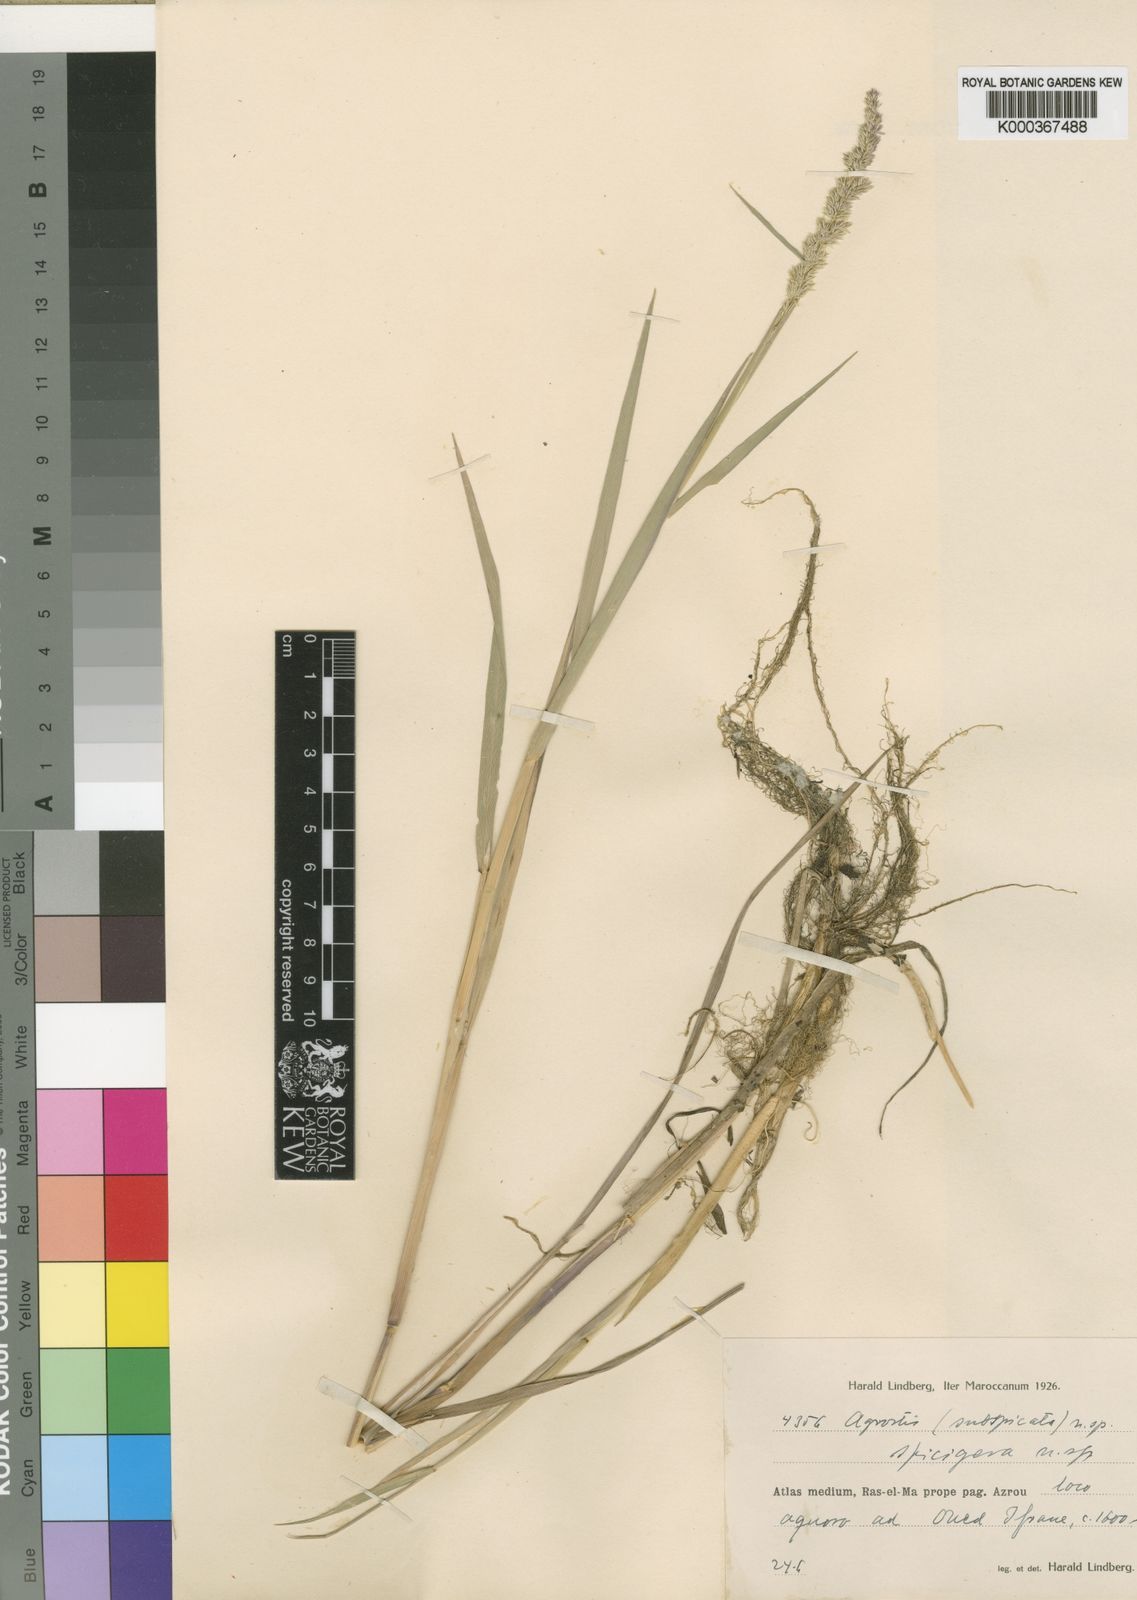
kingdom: Plantae
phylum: Tracheophyta
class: Liliopsida
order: Poales
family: Poaceae
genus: Agrostis
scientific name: Agrostis stolonifera
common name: Creeping bentgrass
